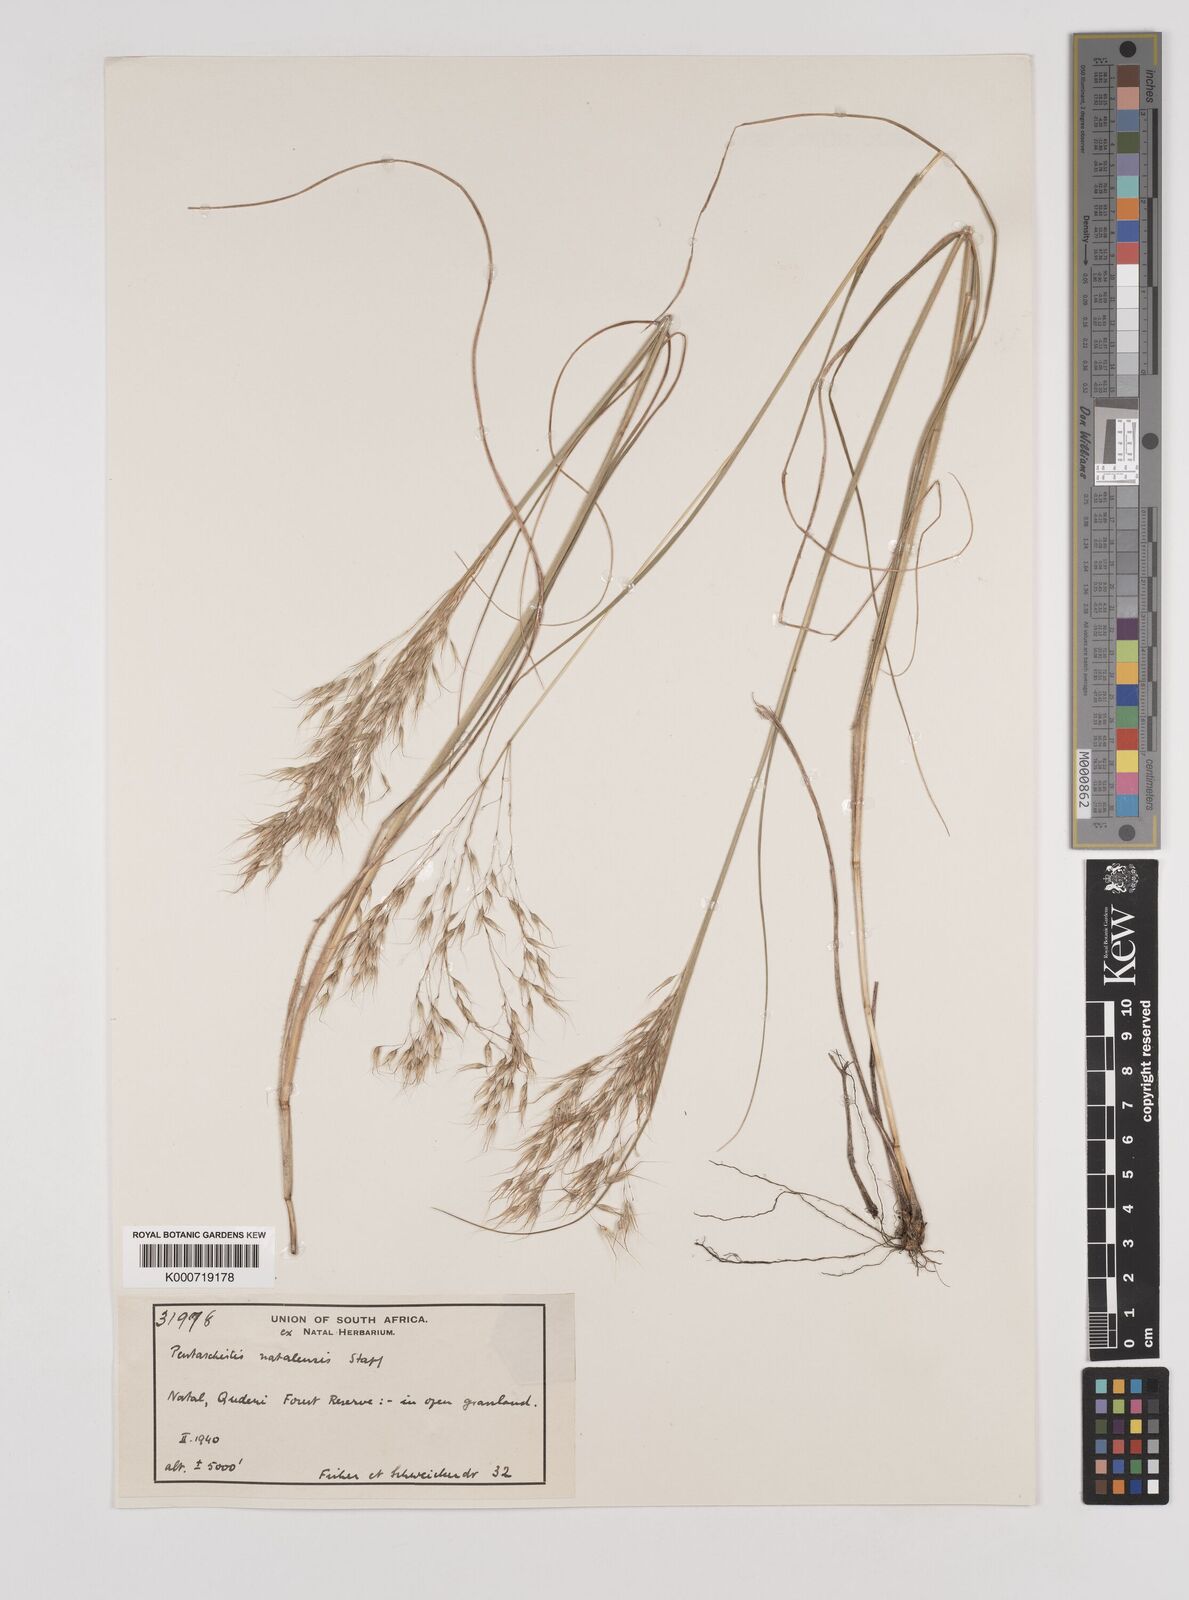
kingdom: Plantae
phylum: Tracheophyta
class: Liliopsida
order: Poales
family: Poaceae
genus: Pentameris
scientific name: Pentameris natalensis
